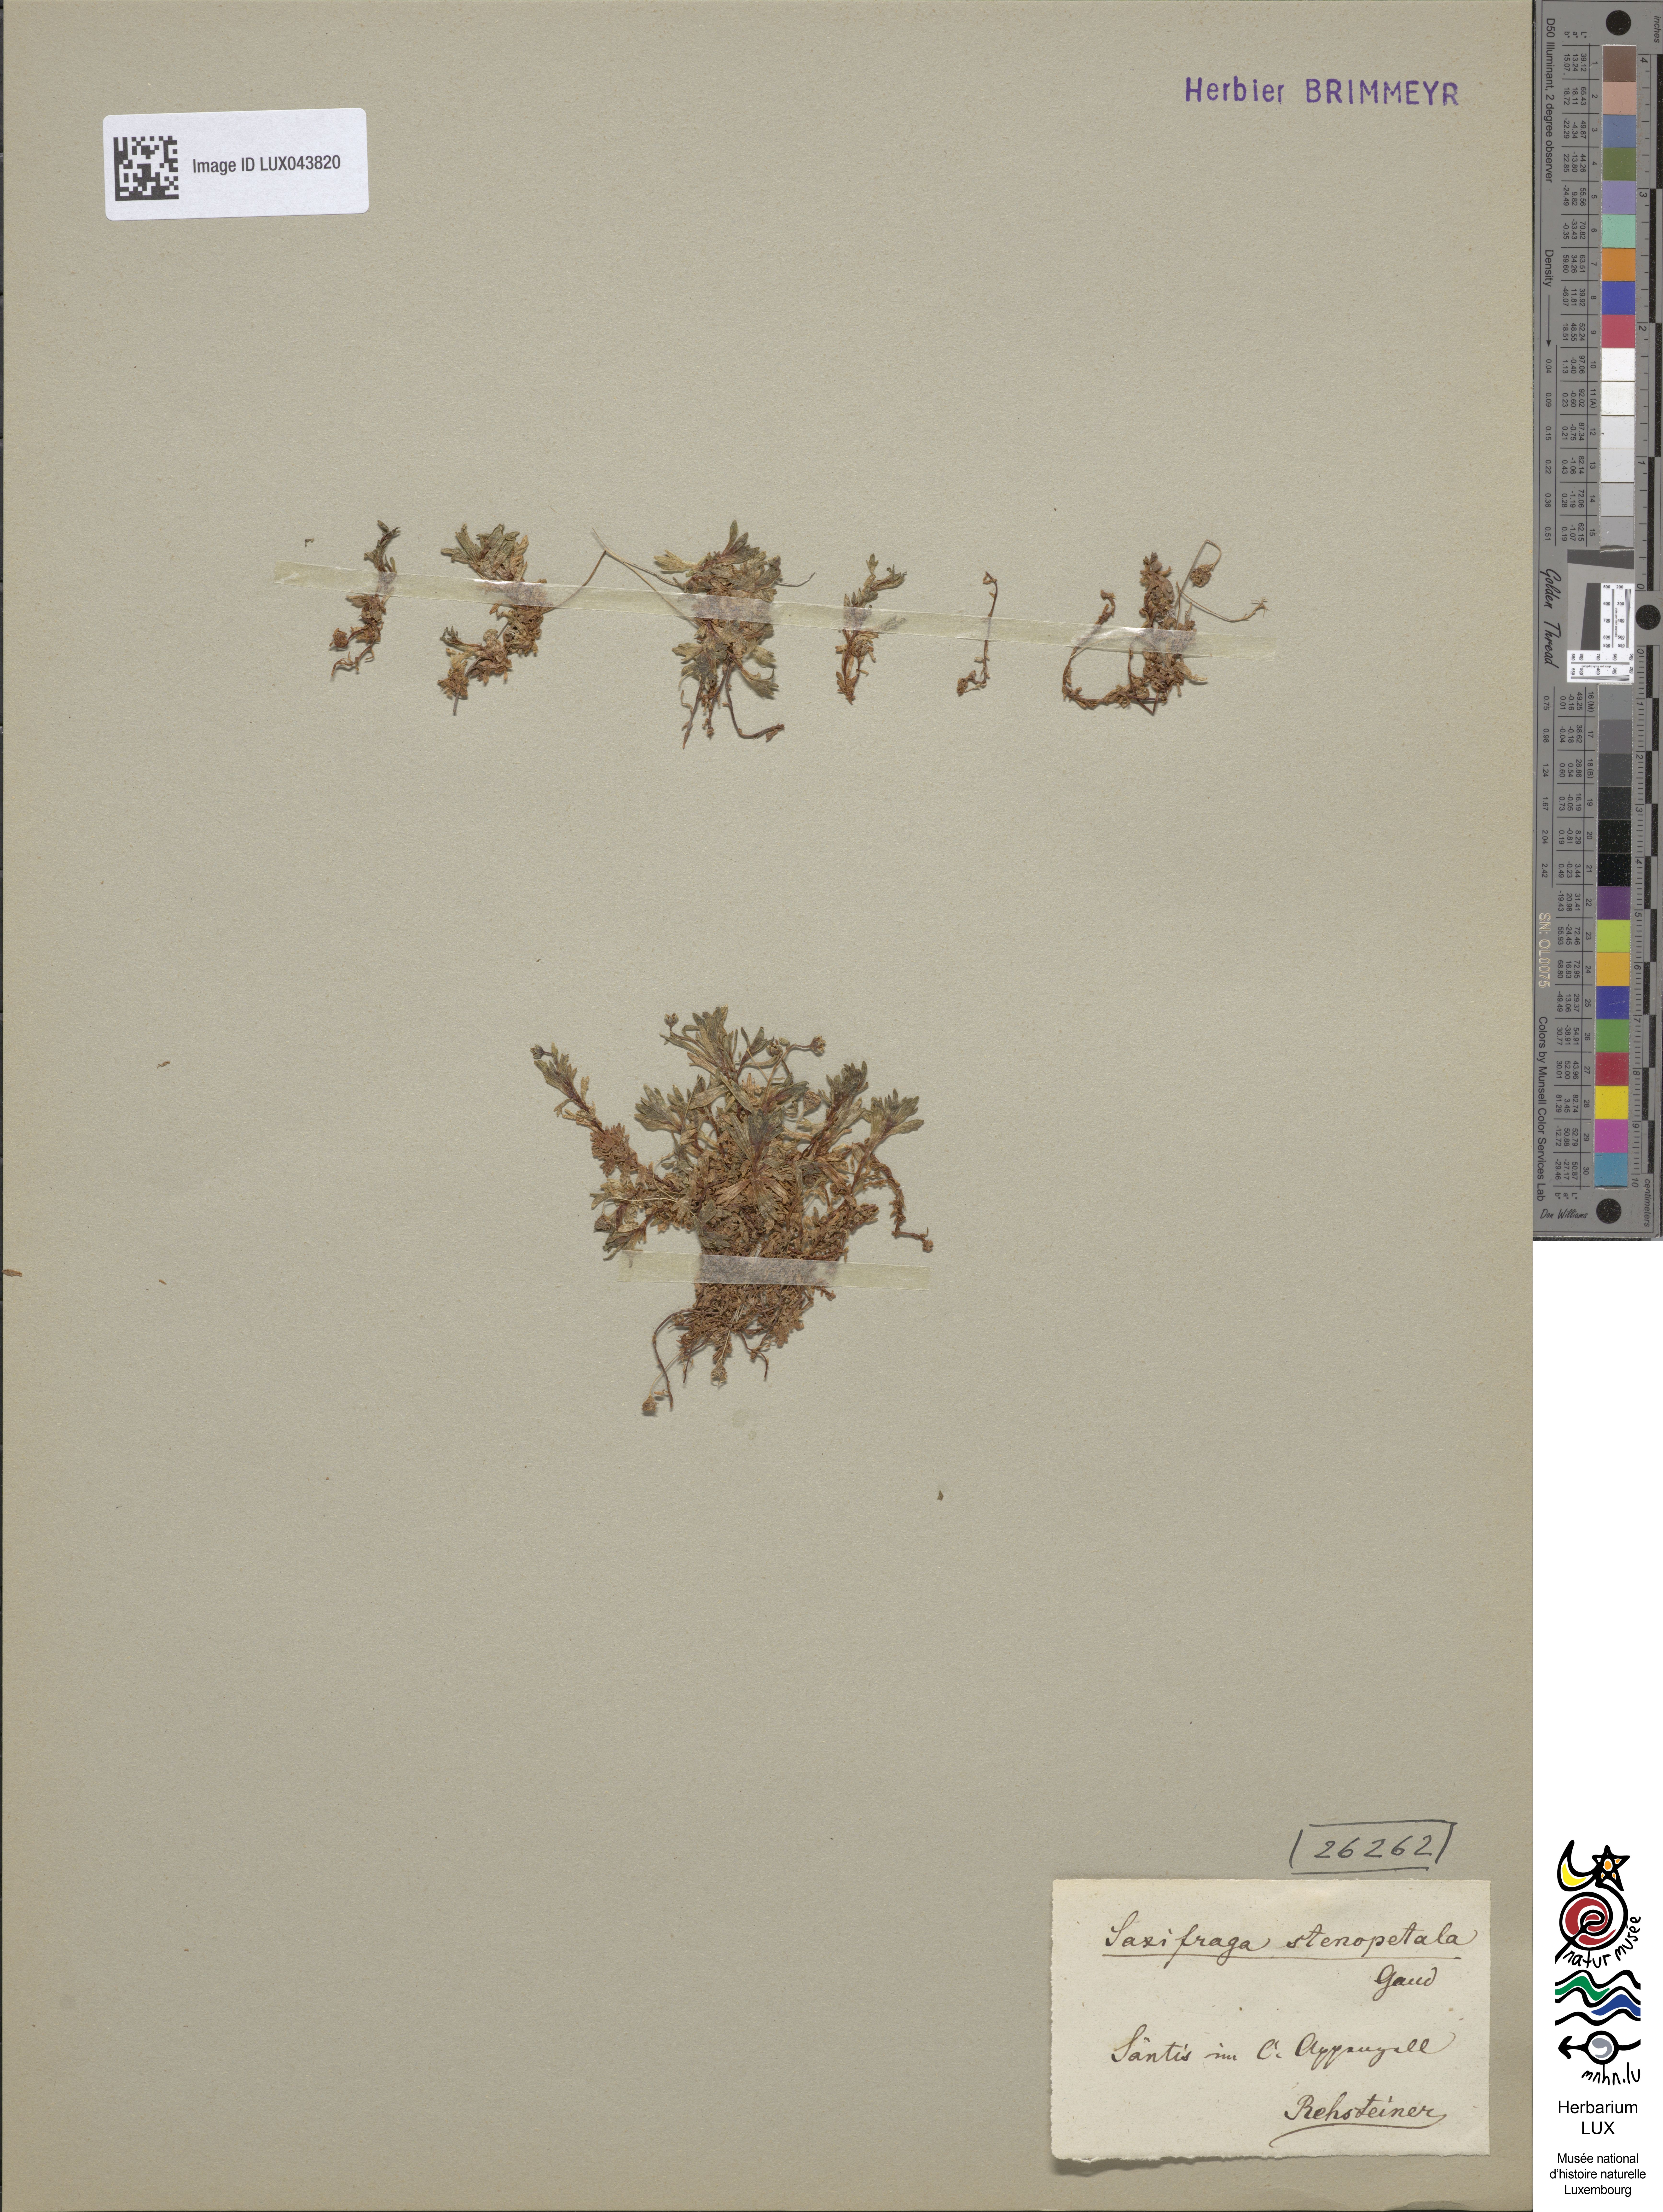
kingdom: Plantae
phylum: Tracheophyta
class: Magnoliopsida
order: Saxifragales
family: Saxifragaceae
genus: Saxifraga
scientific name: Saxifraga aphylla
